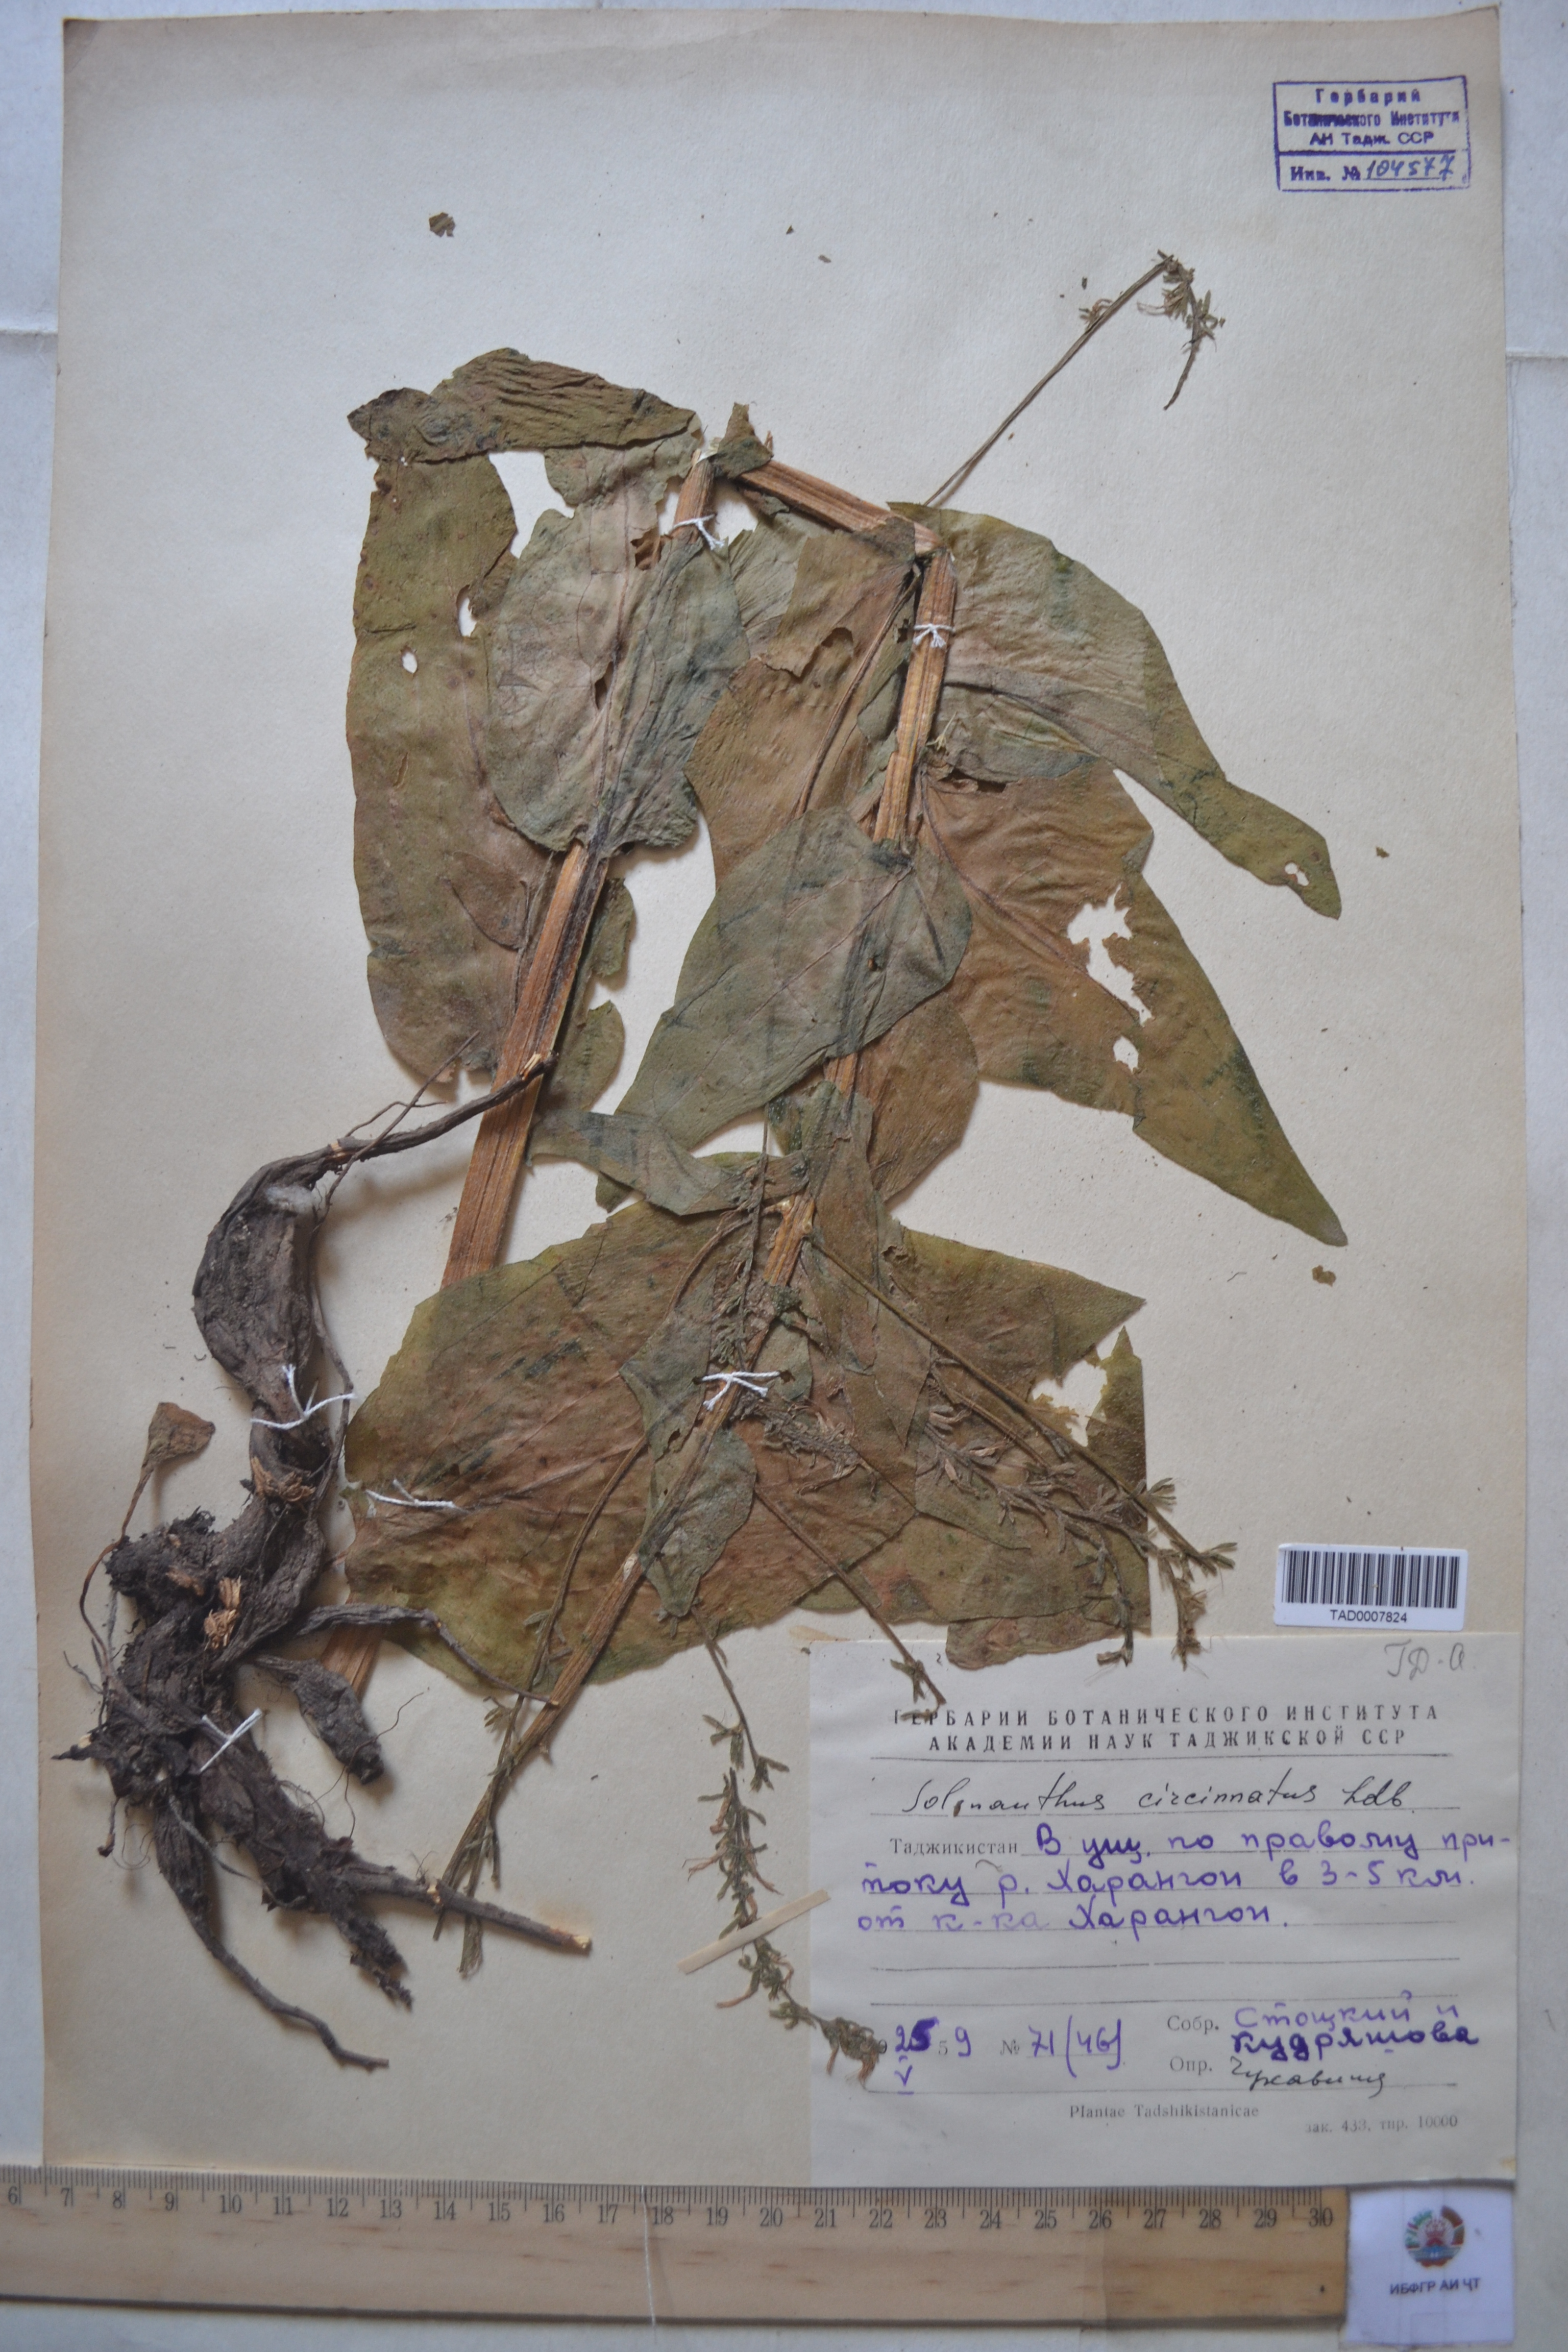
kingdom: Plantae
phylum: Tracheophyta
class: Magnoliopsida
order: Boraginales
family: Boraginaceae
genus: Solenanthus
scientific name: Solenanthus circinnatus
